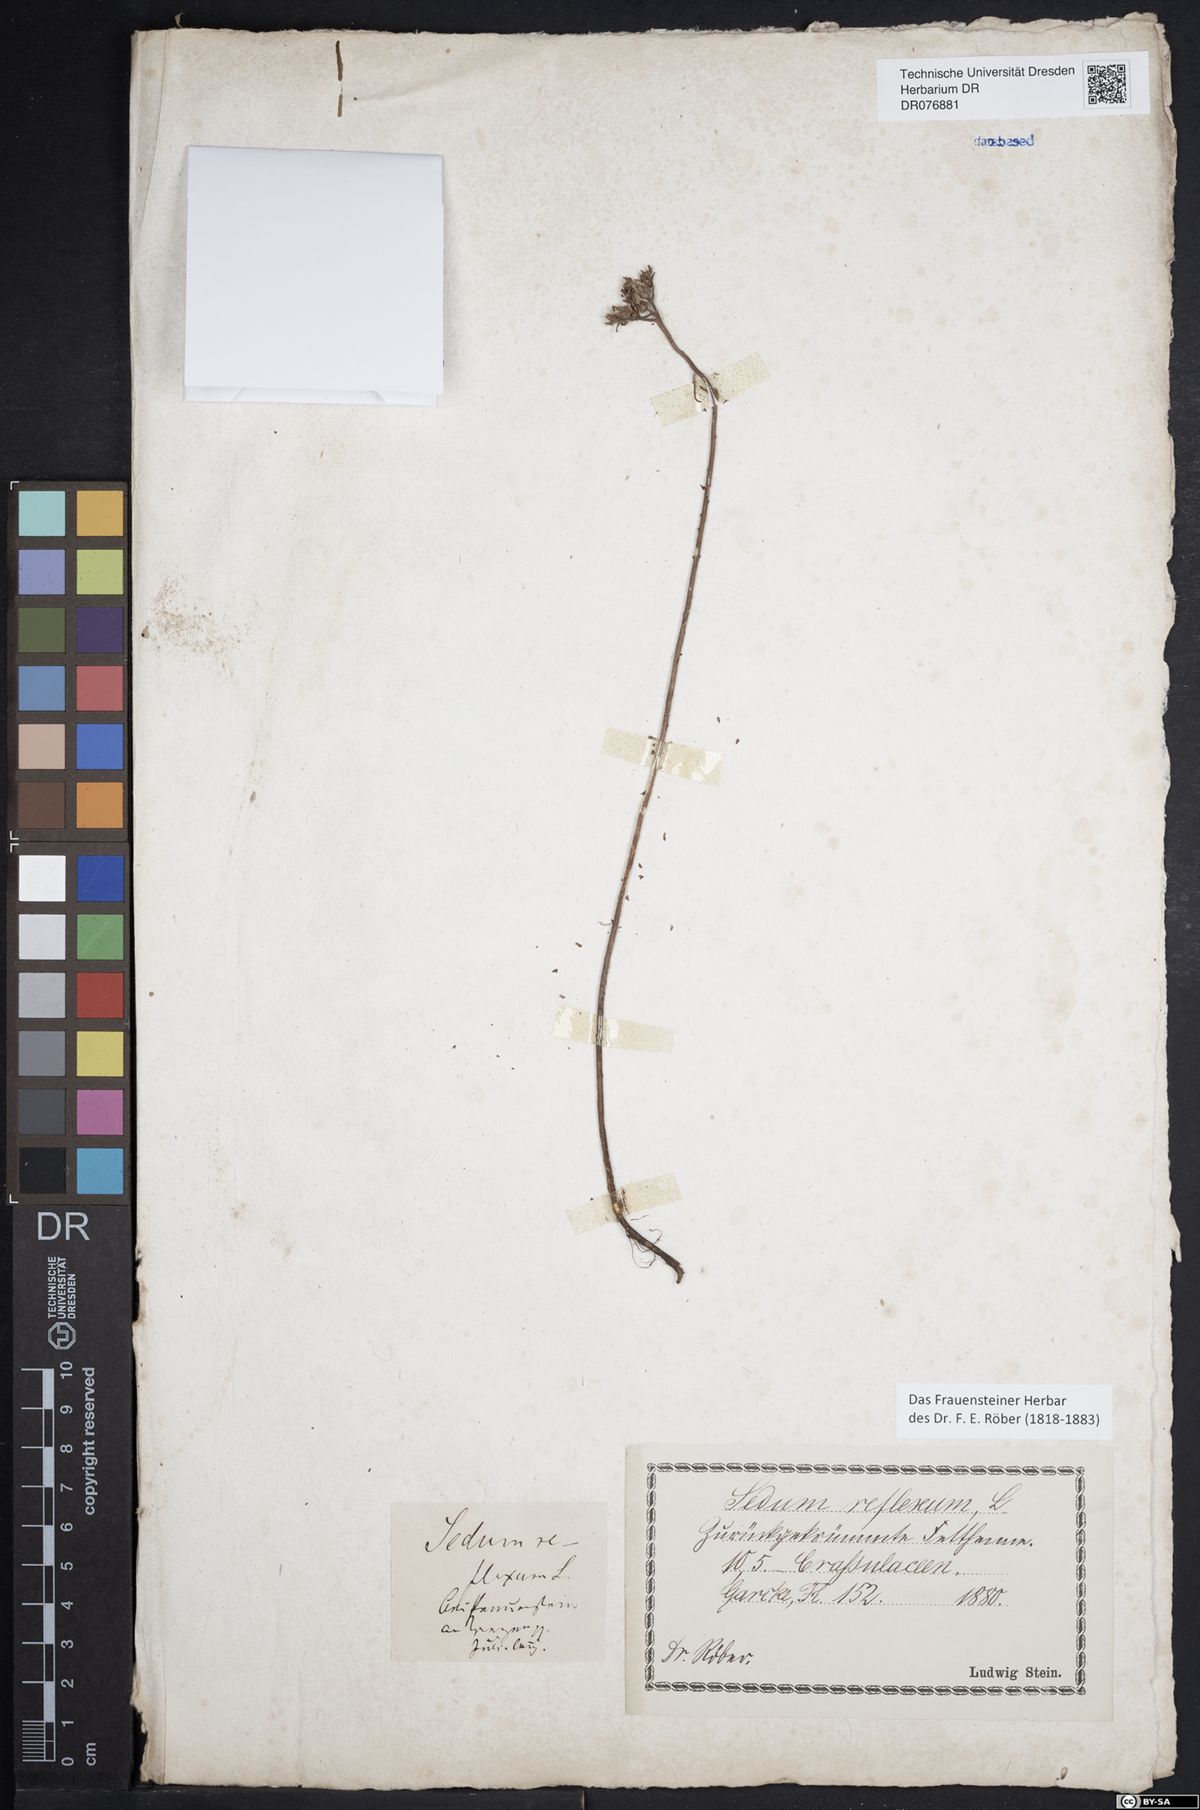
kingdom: Plantae
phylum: Tracheophyta
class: Magnoliopsida
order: Saxifragales
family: Crassulaceae
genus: Petrosedum
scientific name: Petrosedum rupestre
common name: Jenny's stonecrop
